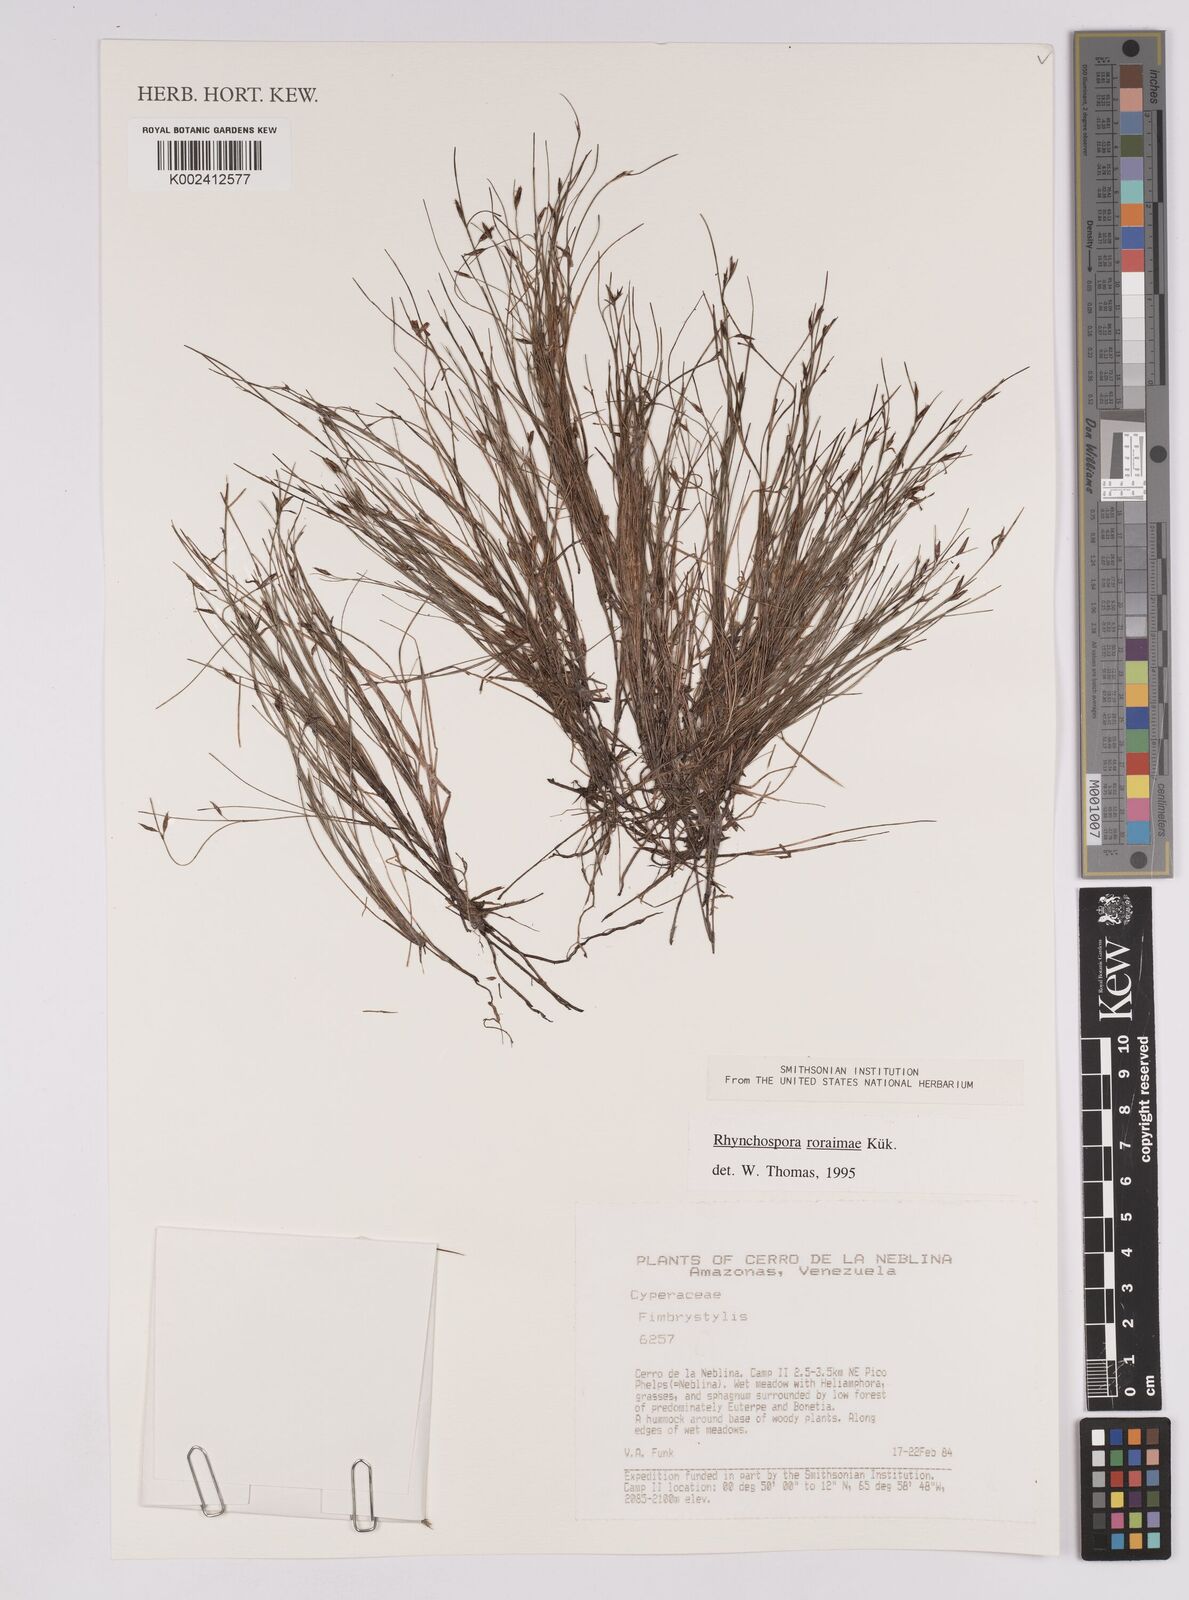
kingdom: Plantae
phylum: Tracheophyta
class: Liliopsida
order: Poales
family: Cyperaceae
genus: Rhynchospora
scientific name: Rhynchospora roraimae
